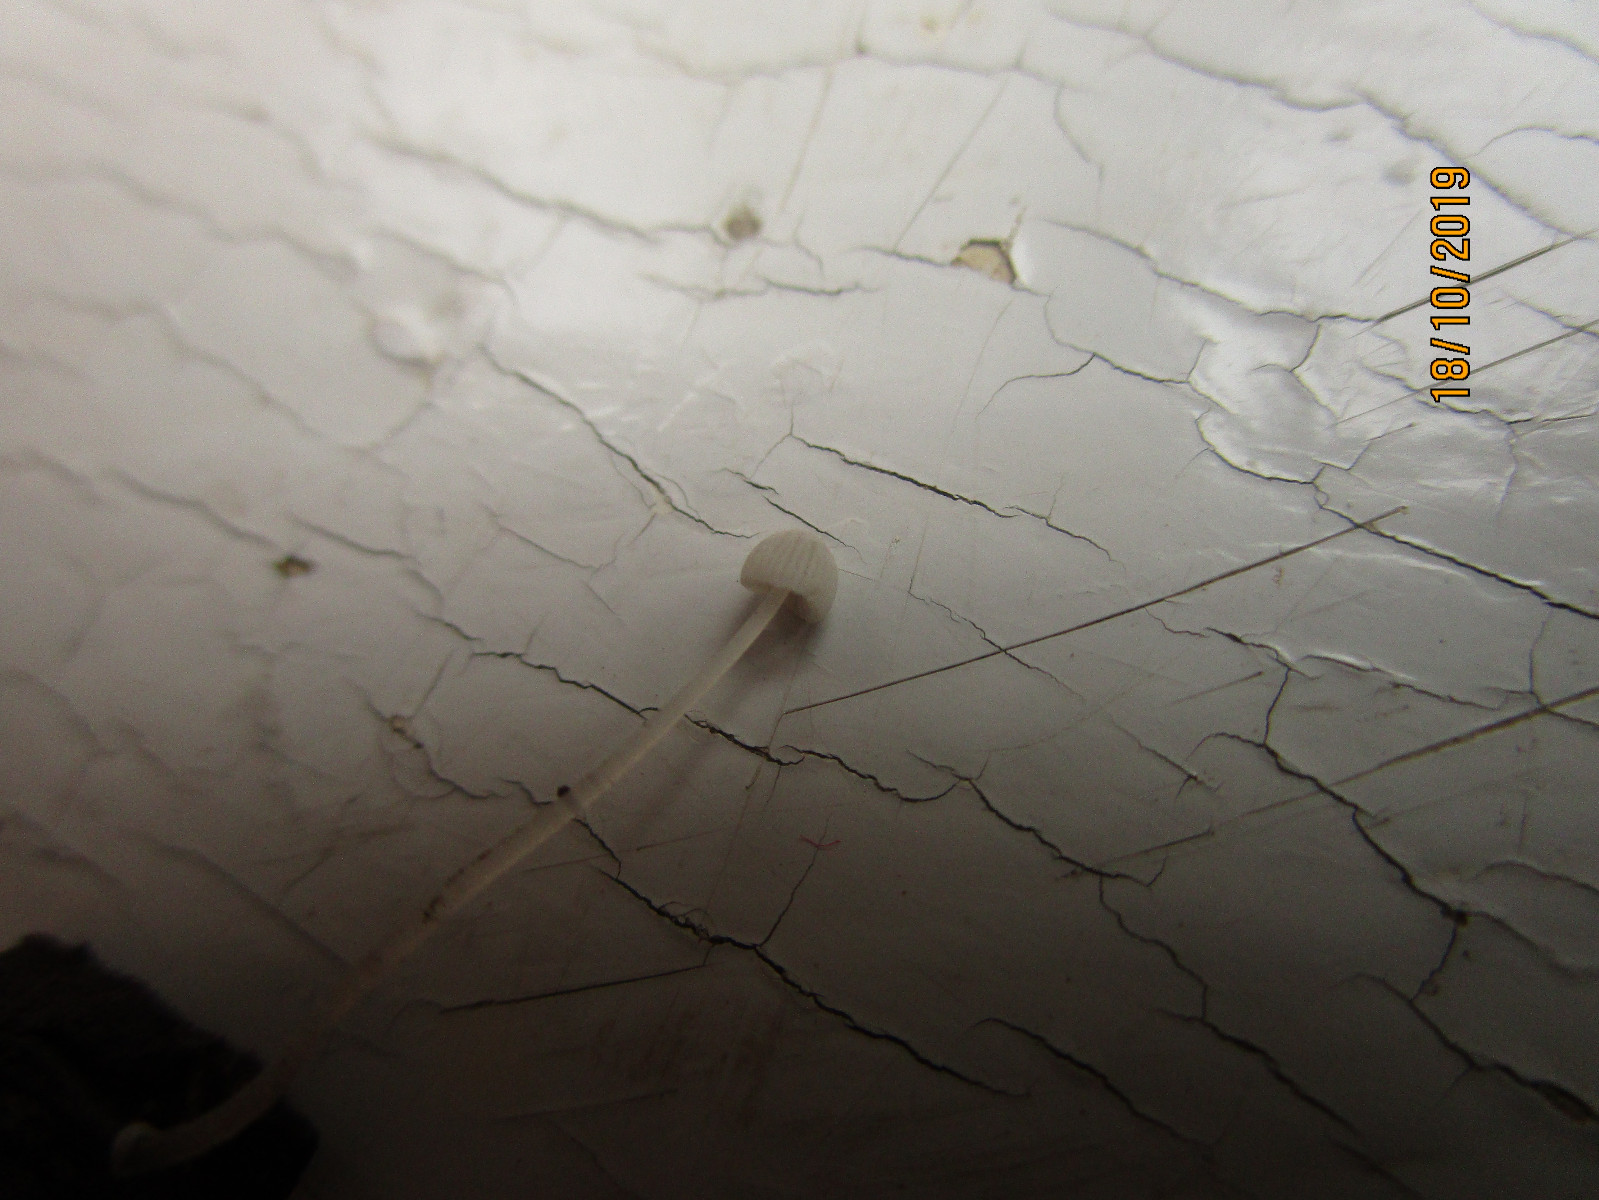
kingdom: Fungi
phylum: Basidiomycota
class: Agaricomycetes
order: Agaricales
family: Mycenaceae
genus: Mycena
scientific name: Mycena tenerrima
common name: pudret huesvamp
